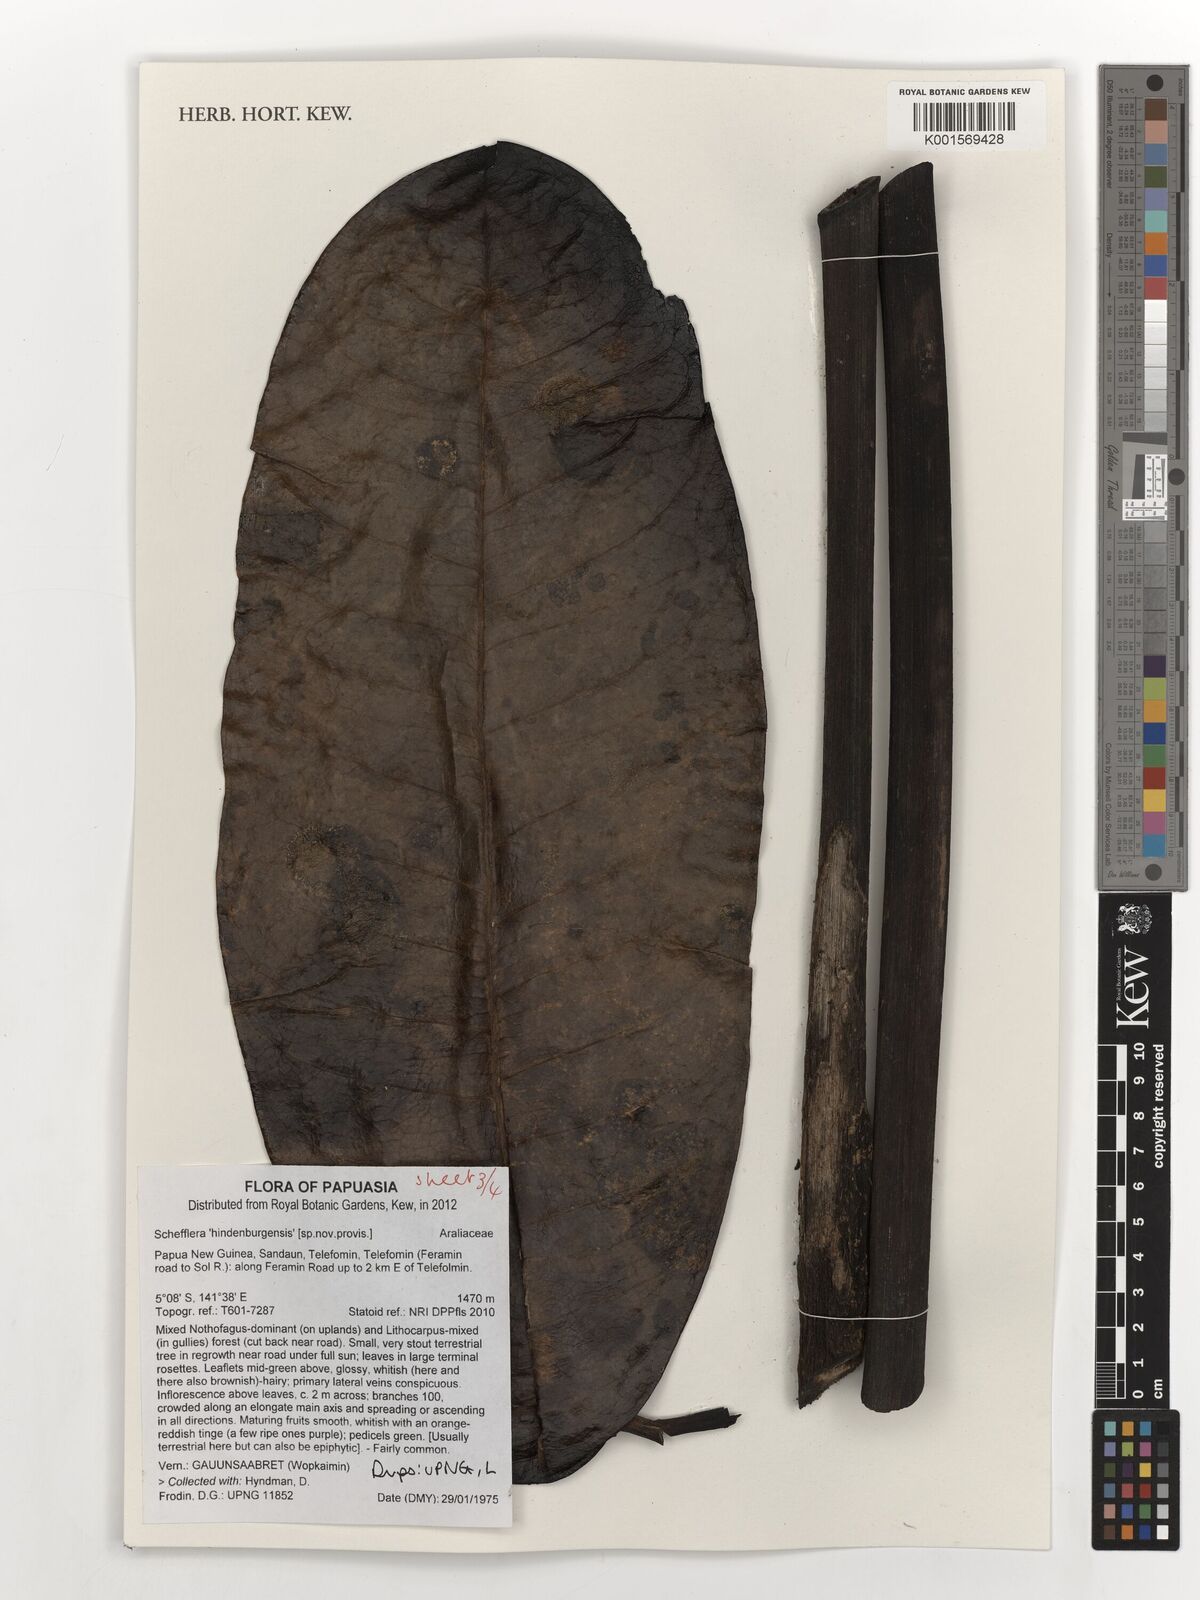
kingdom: Plantae
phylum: Tracheophyta
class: Magnoliopsida
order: Apiales
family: Araliaceae
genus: Schefflera
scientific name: Schefflera
